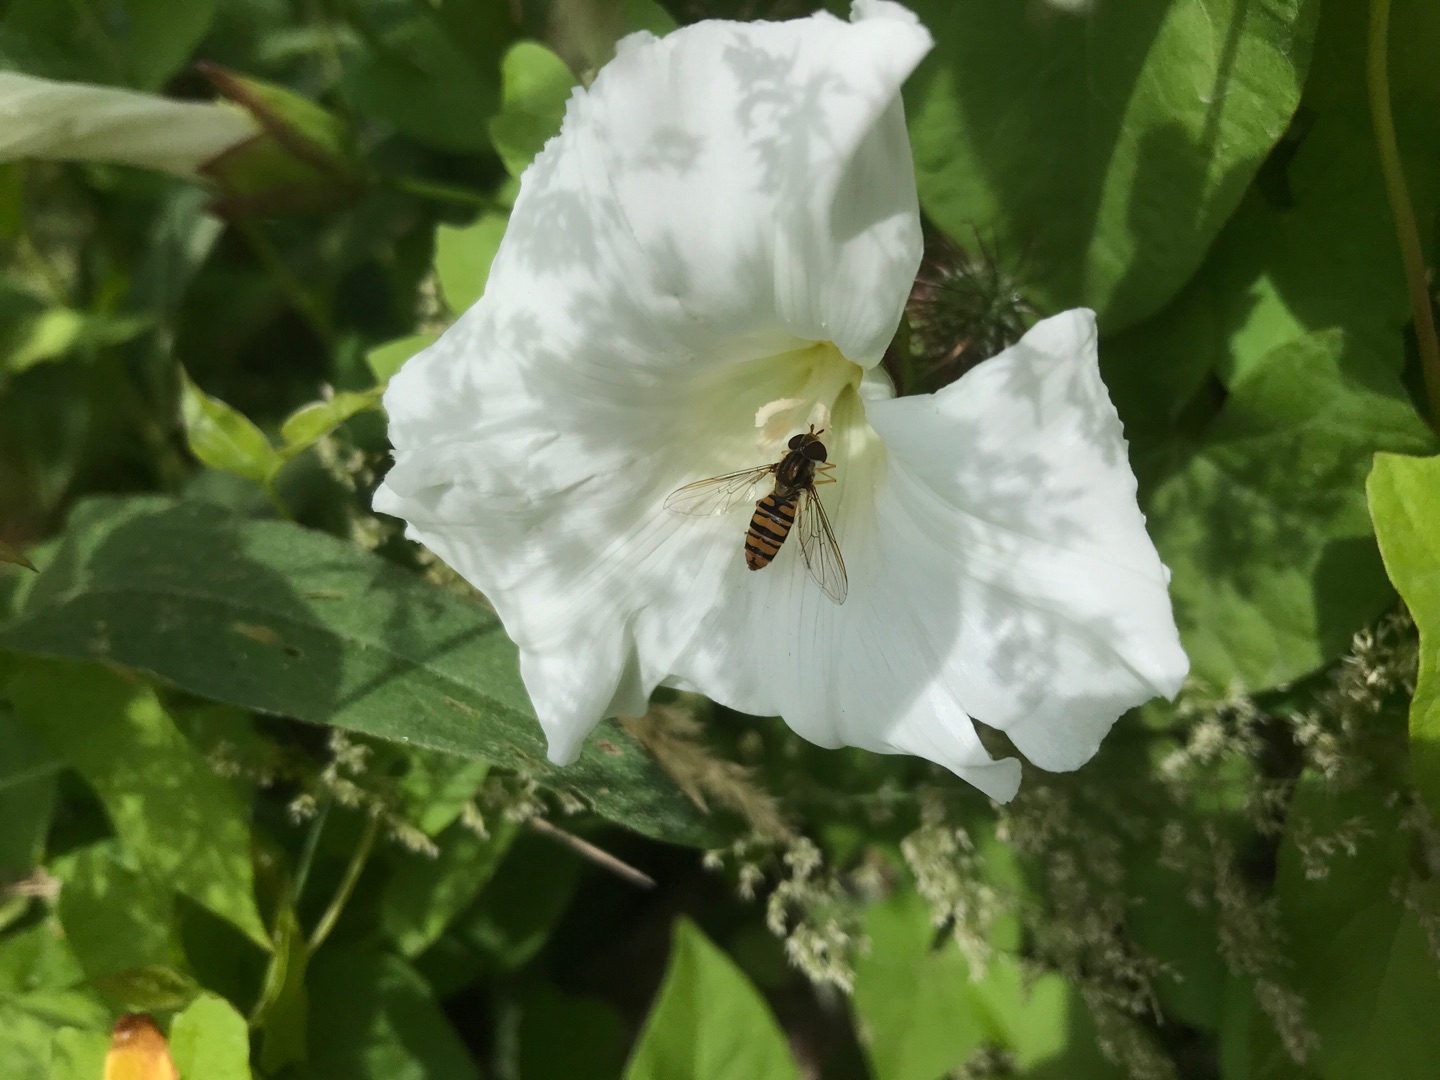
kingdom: Animalia
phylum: Arthropoda
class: Insecta
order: Diptera
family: Syrphidae
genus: Episyrphus
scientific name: Episyrphus balteatus
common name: Dobbeltbåndet svirreflue
